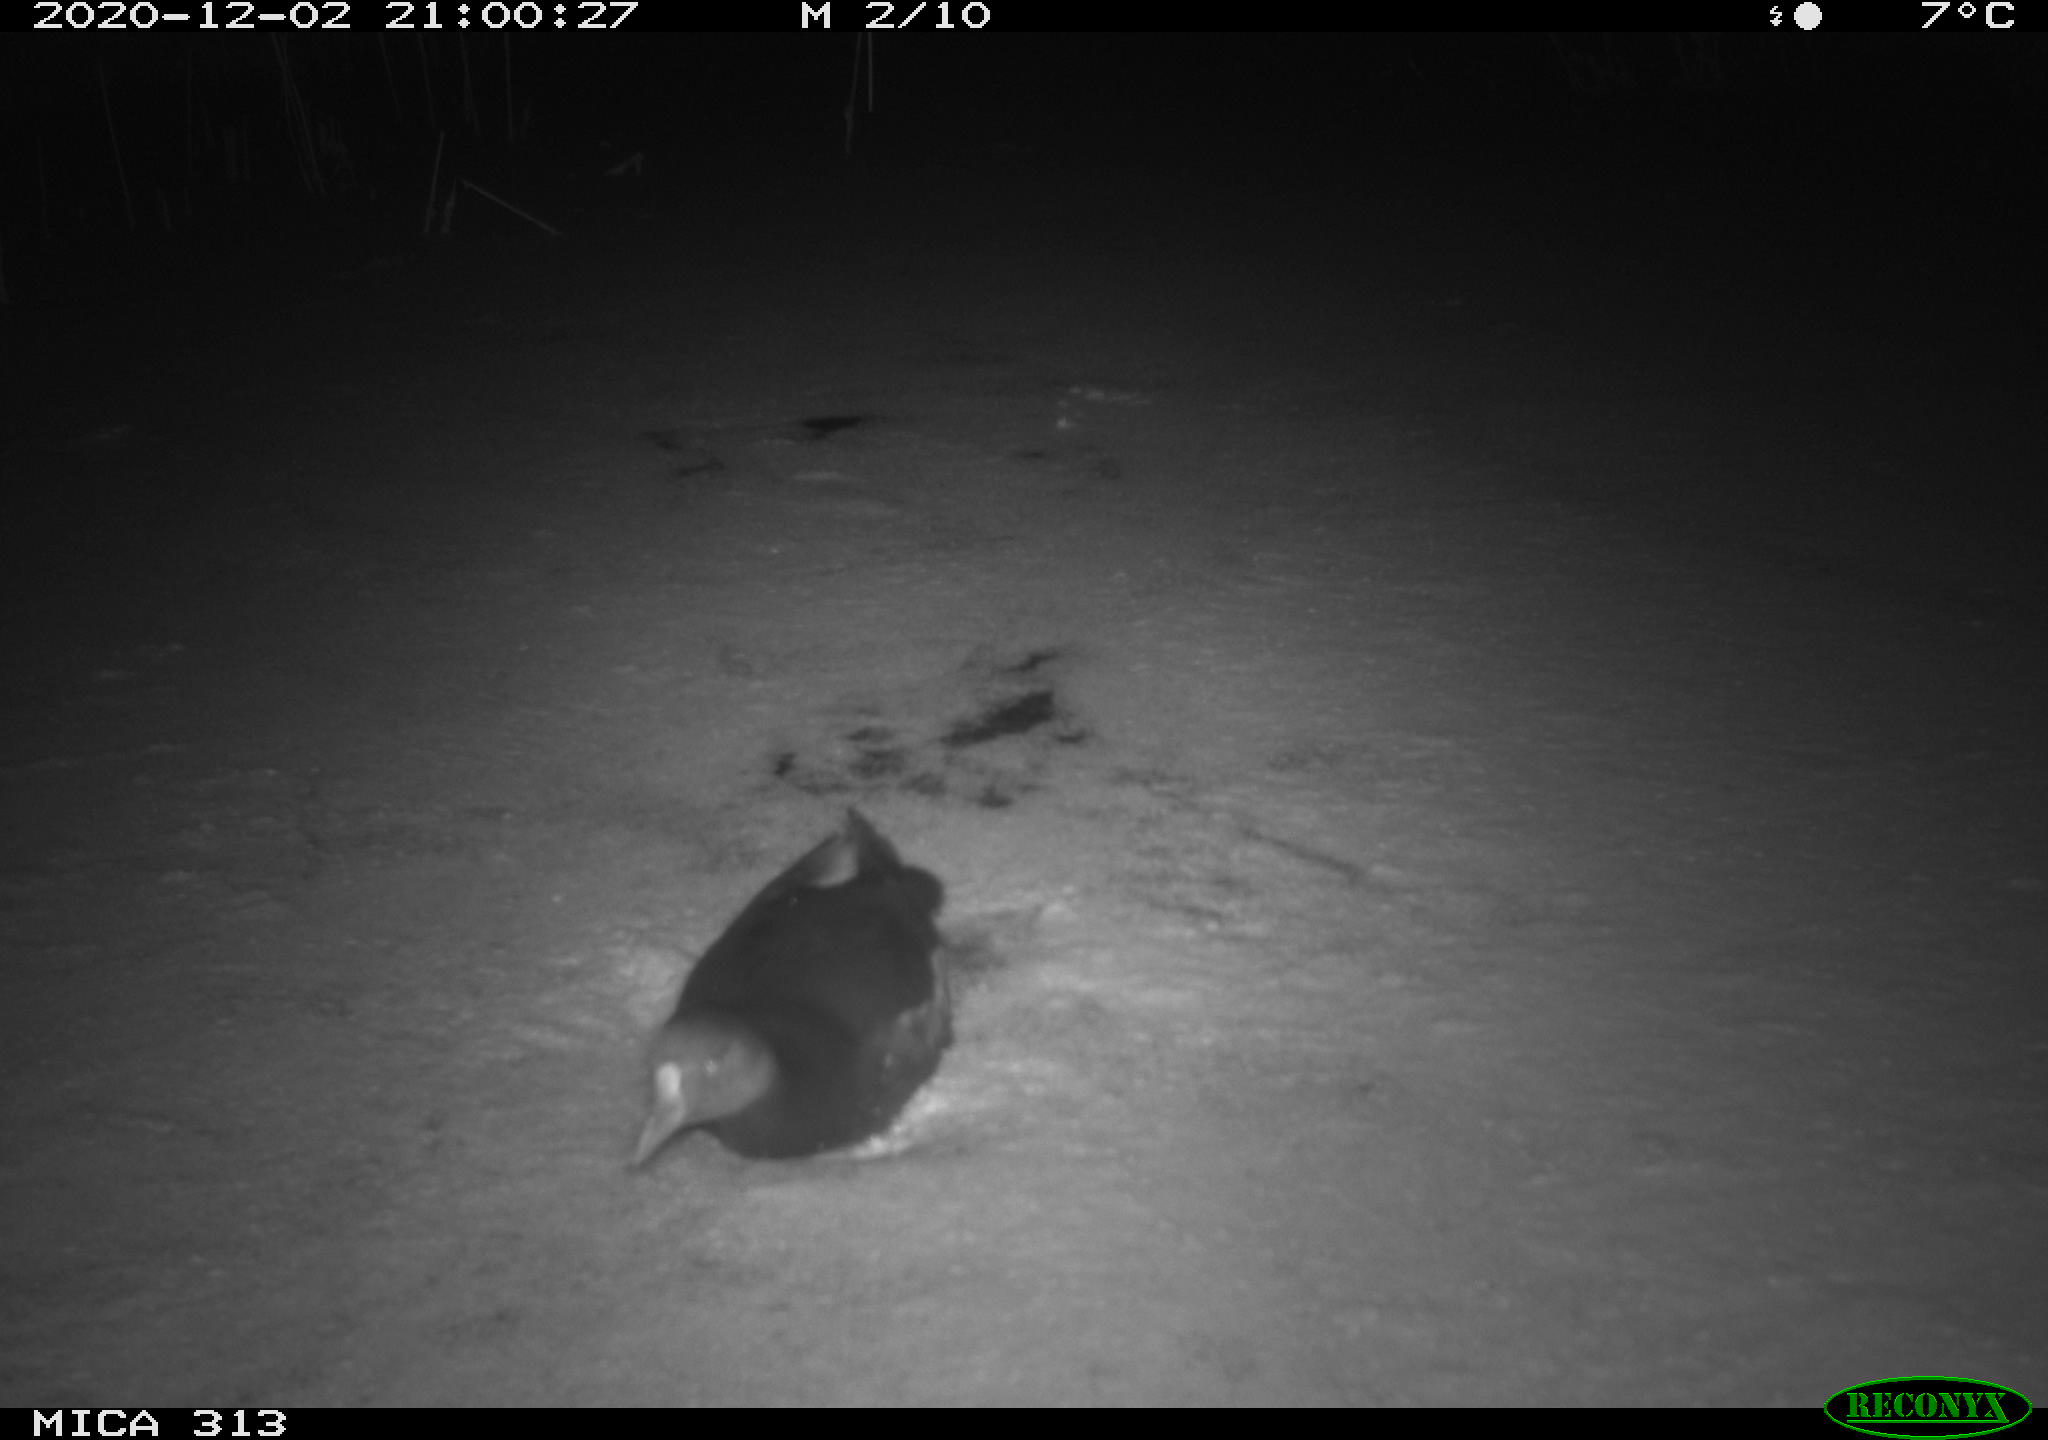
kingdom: Animalia
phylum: Chordata
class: Aves
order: Gruiformes
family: Rallidae
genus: Gallinula
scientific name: Gallinula chloropus
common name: Common moorhen
